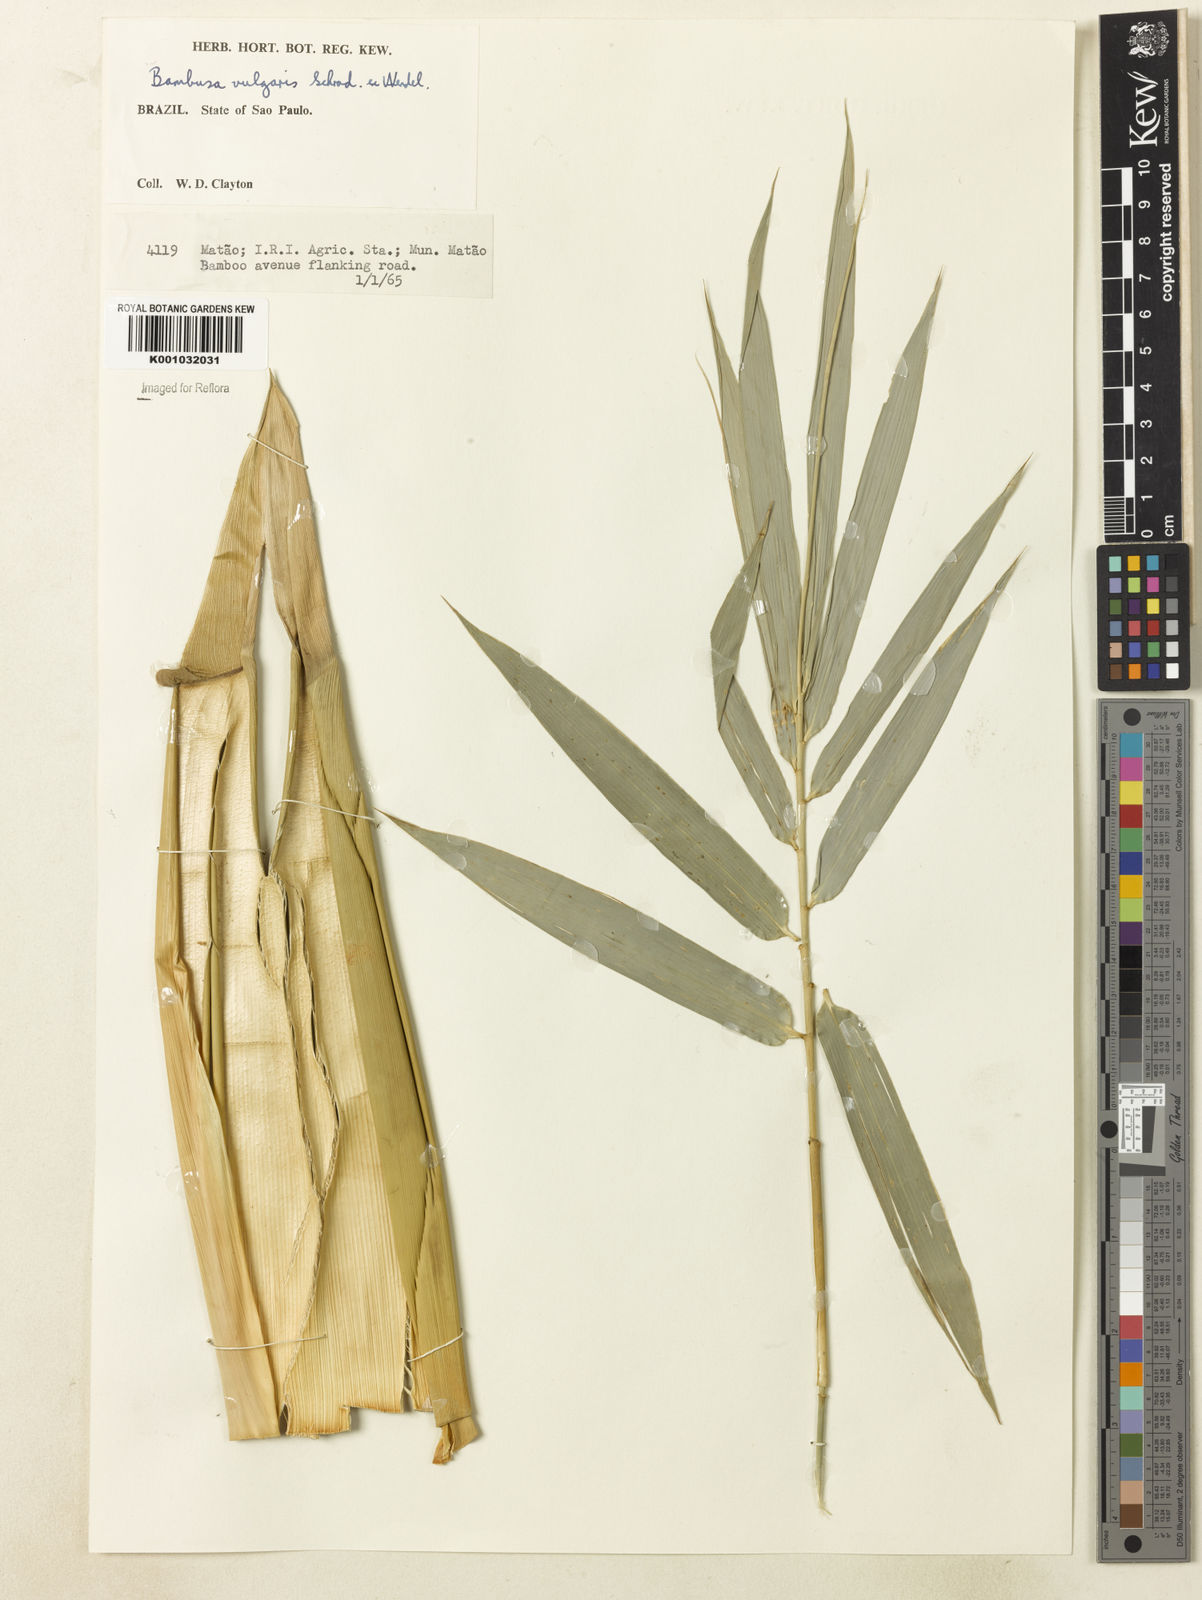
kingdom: Plantae
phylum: Tracheophyta
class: Liliopsida
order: Poales
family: Poaceae
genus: Bambusa
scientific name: Bambusa vulgaris
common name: Common bamboo
